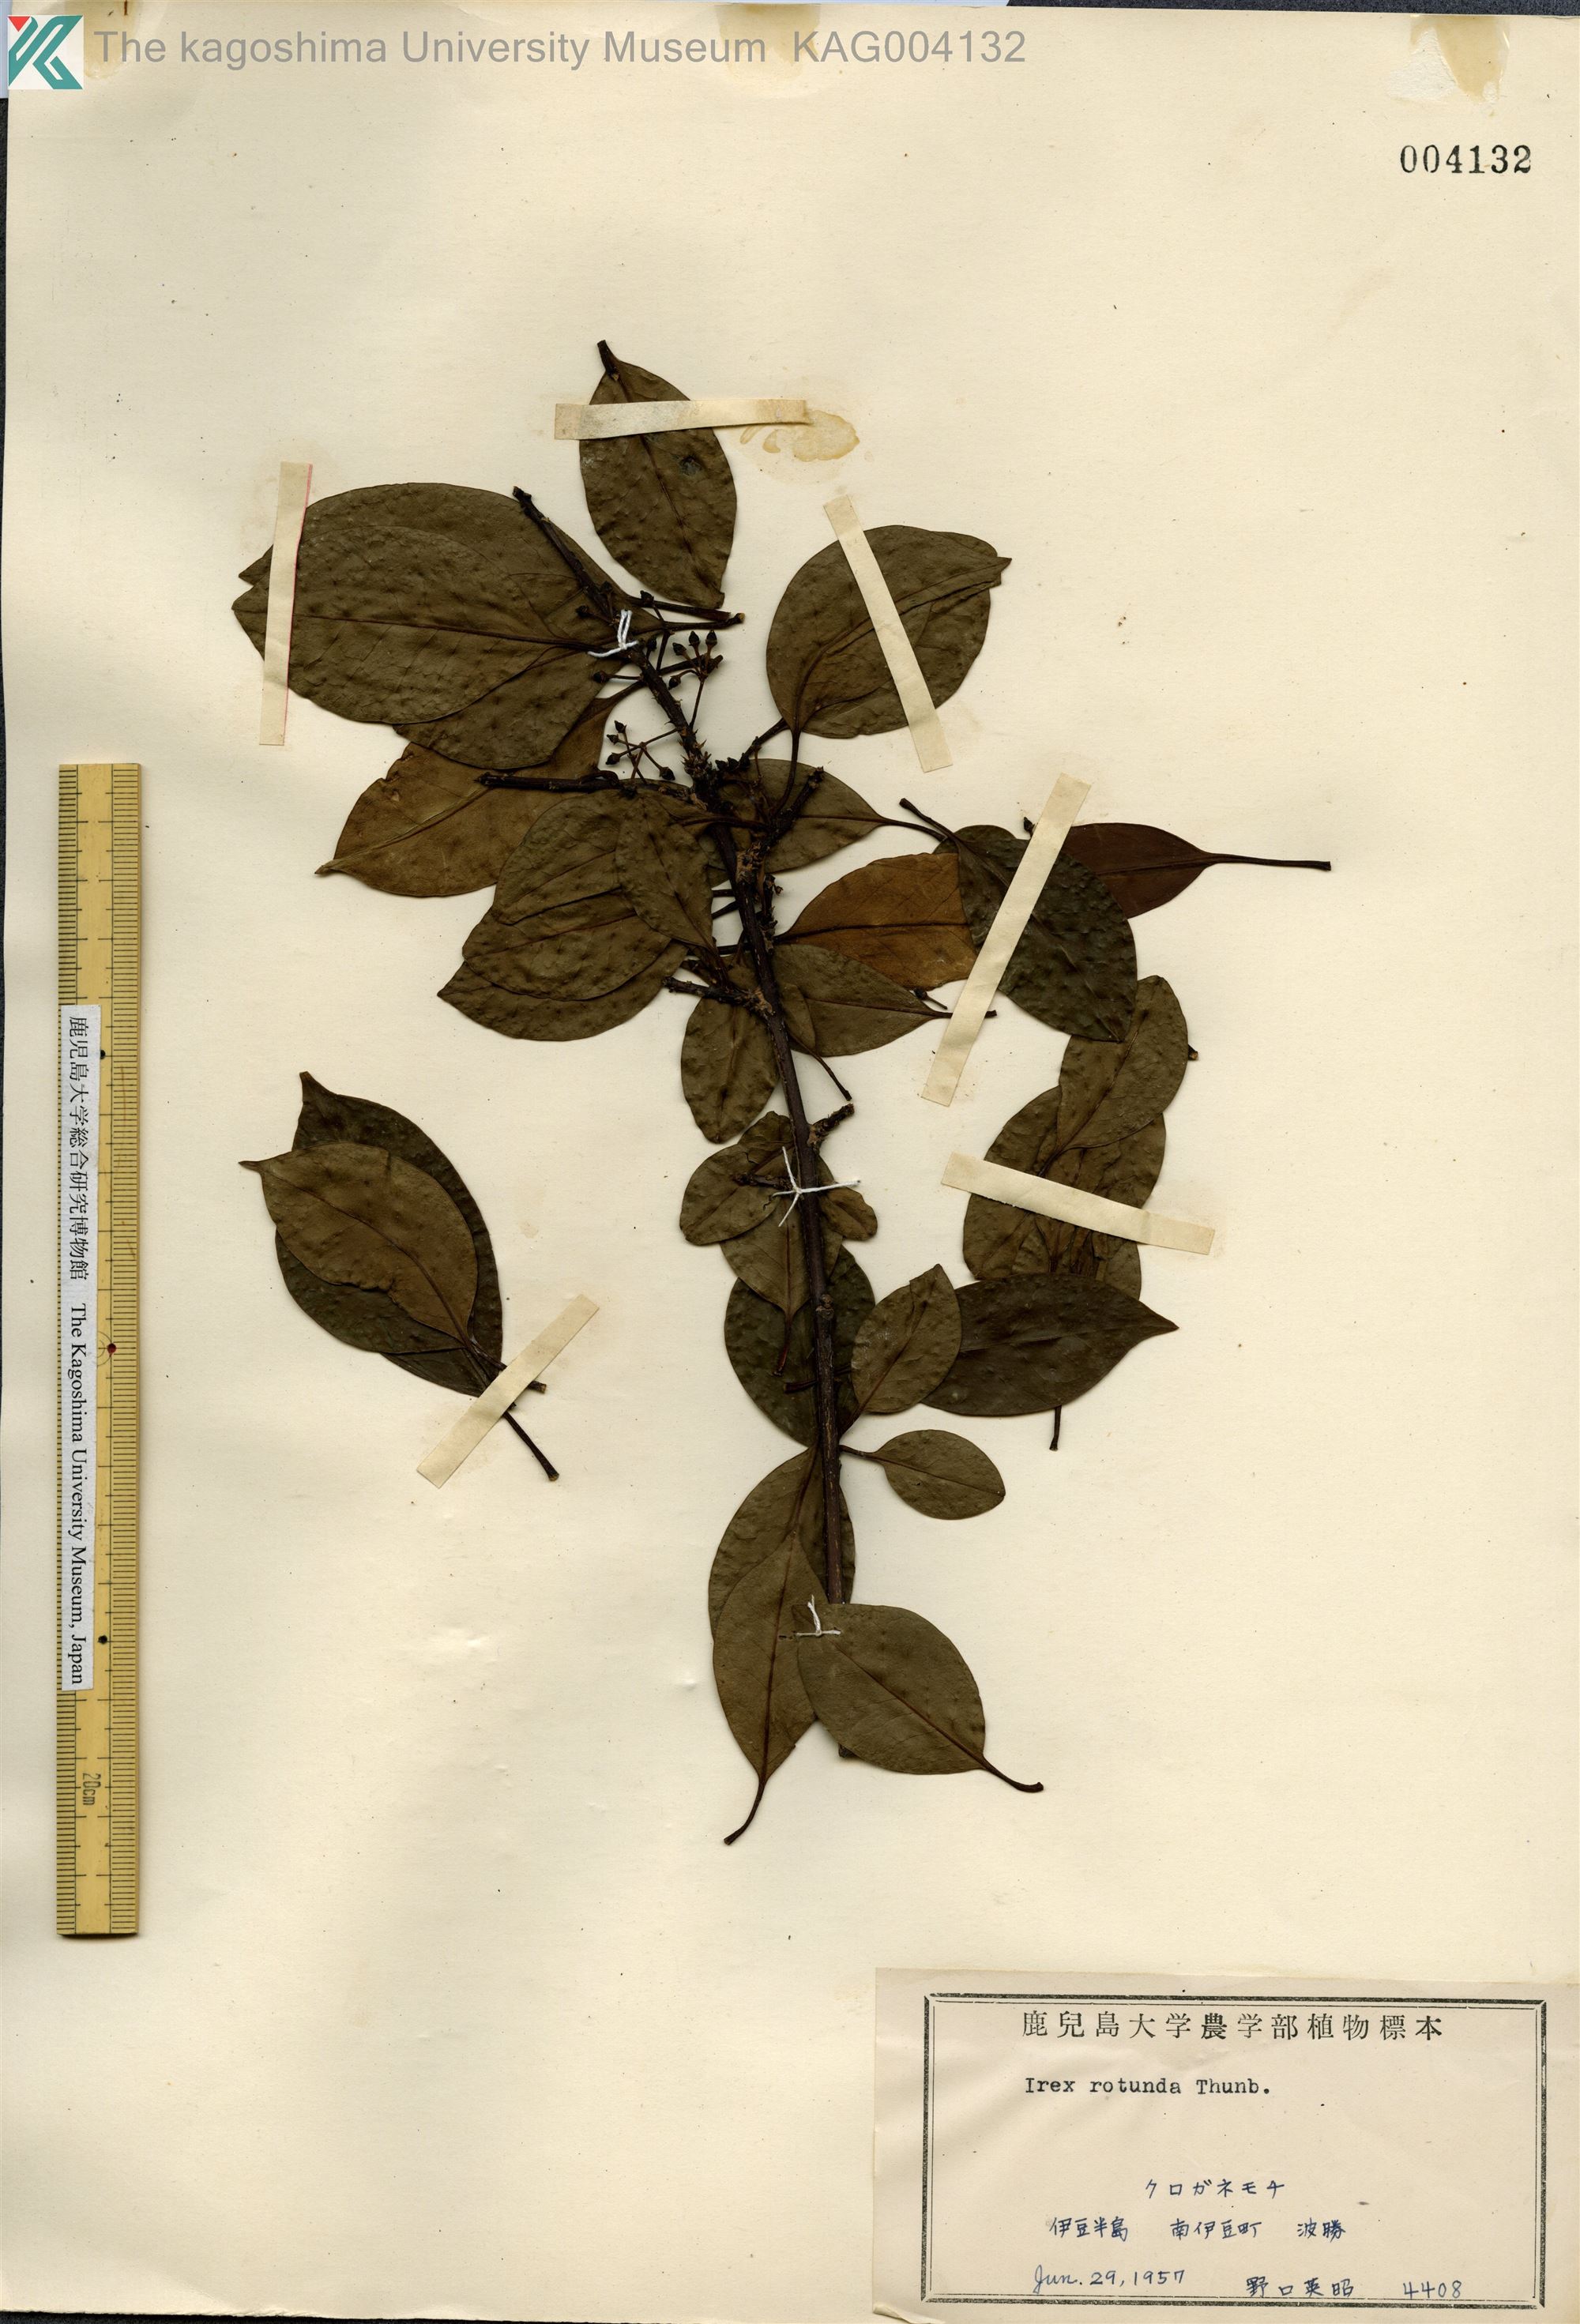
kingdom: Plantae
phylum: Tracheophyta
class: Magnoliopsida
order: Aquifoliales
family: Aquifoliaceae
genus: Ilex
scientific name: Ilex rotunda
